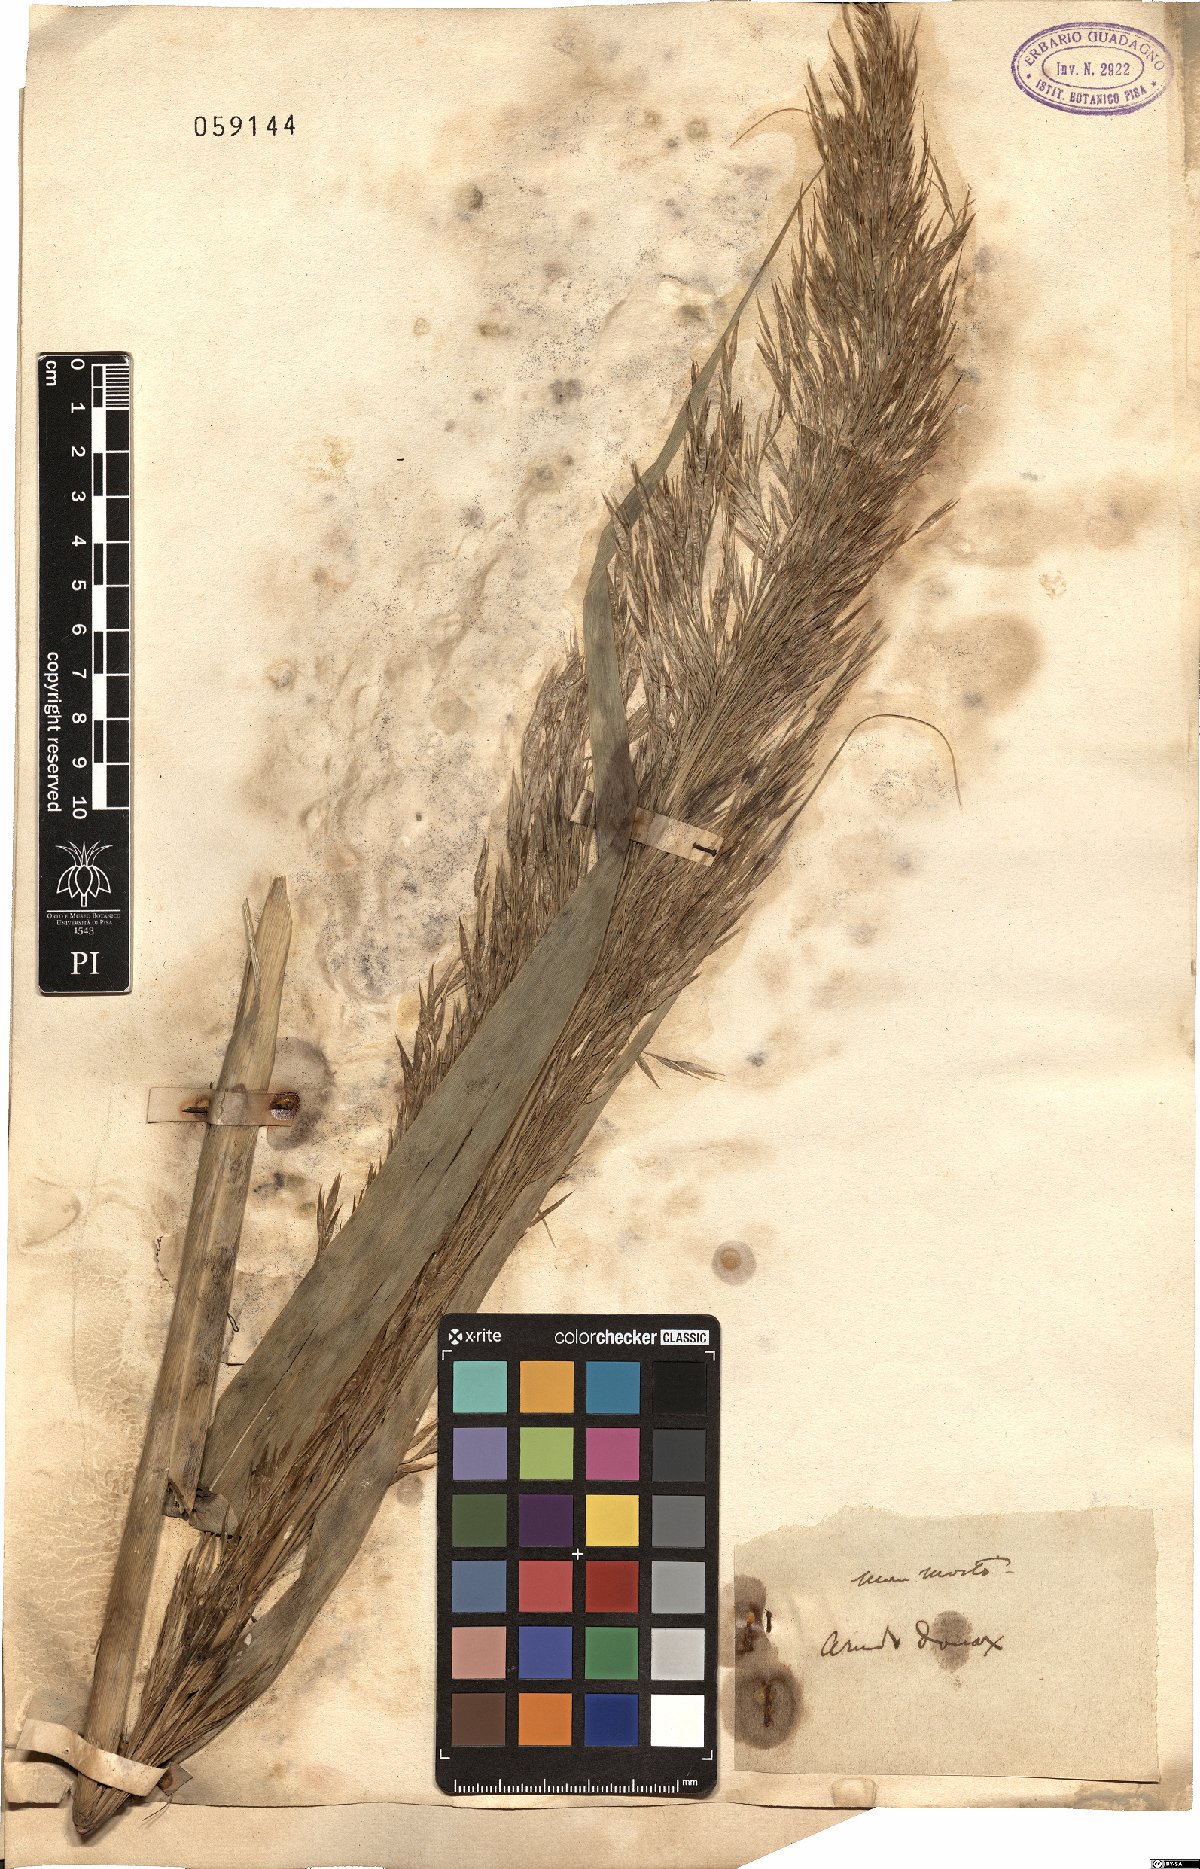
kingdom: Plantae
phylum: Tracheophyta
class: Liliopsida
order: Poales
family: Poaceae
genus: Arundo
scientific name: Arundo donax
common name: Giant reed
